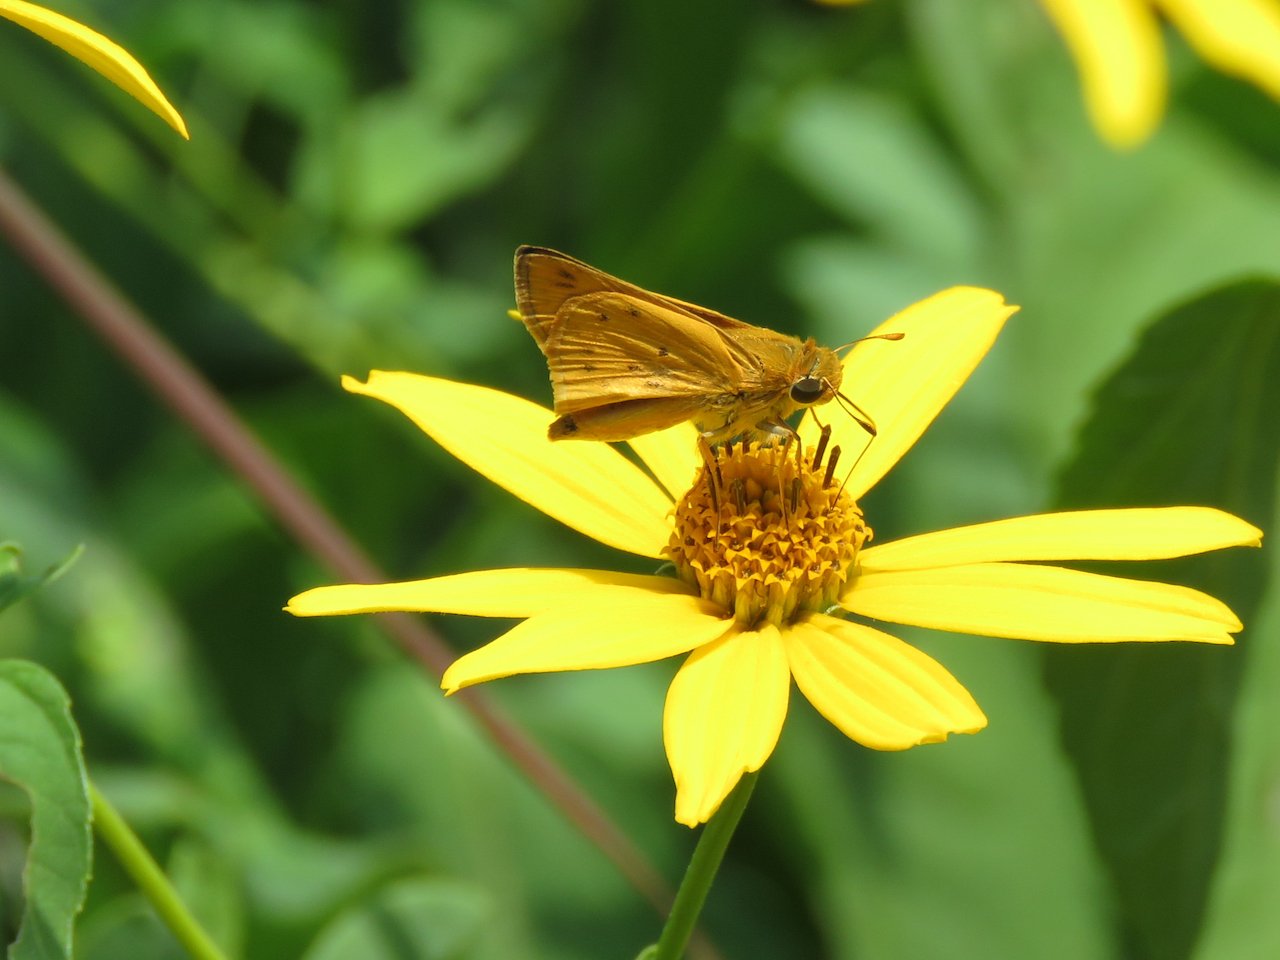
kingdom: Animalia
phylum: Arthropoda
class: Insecta
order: Lepidoptera
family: Hesperiidae
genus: Hylephila
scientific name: Hylephila phyleus
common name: Fiery Skipper
